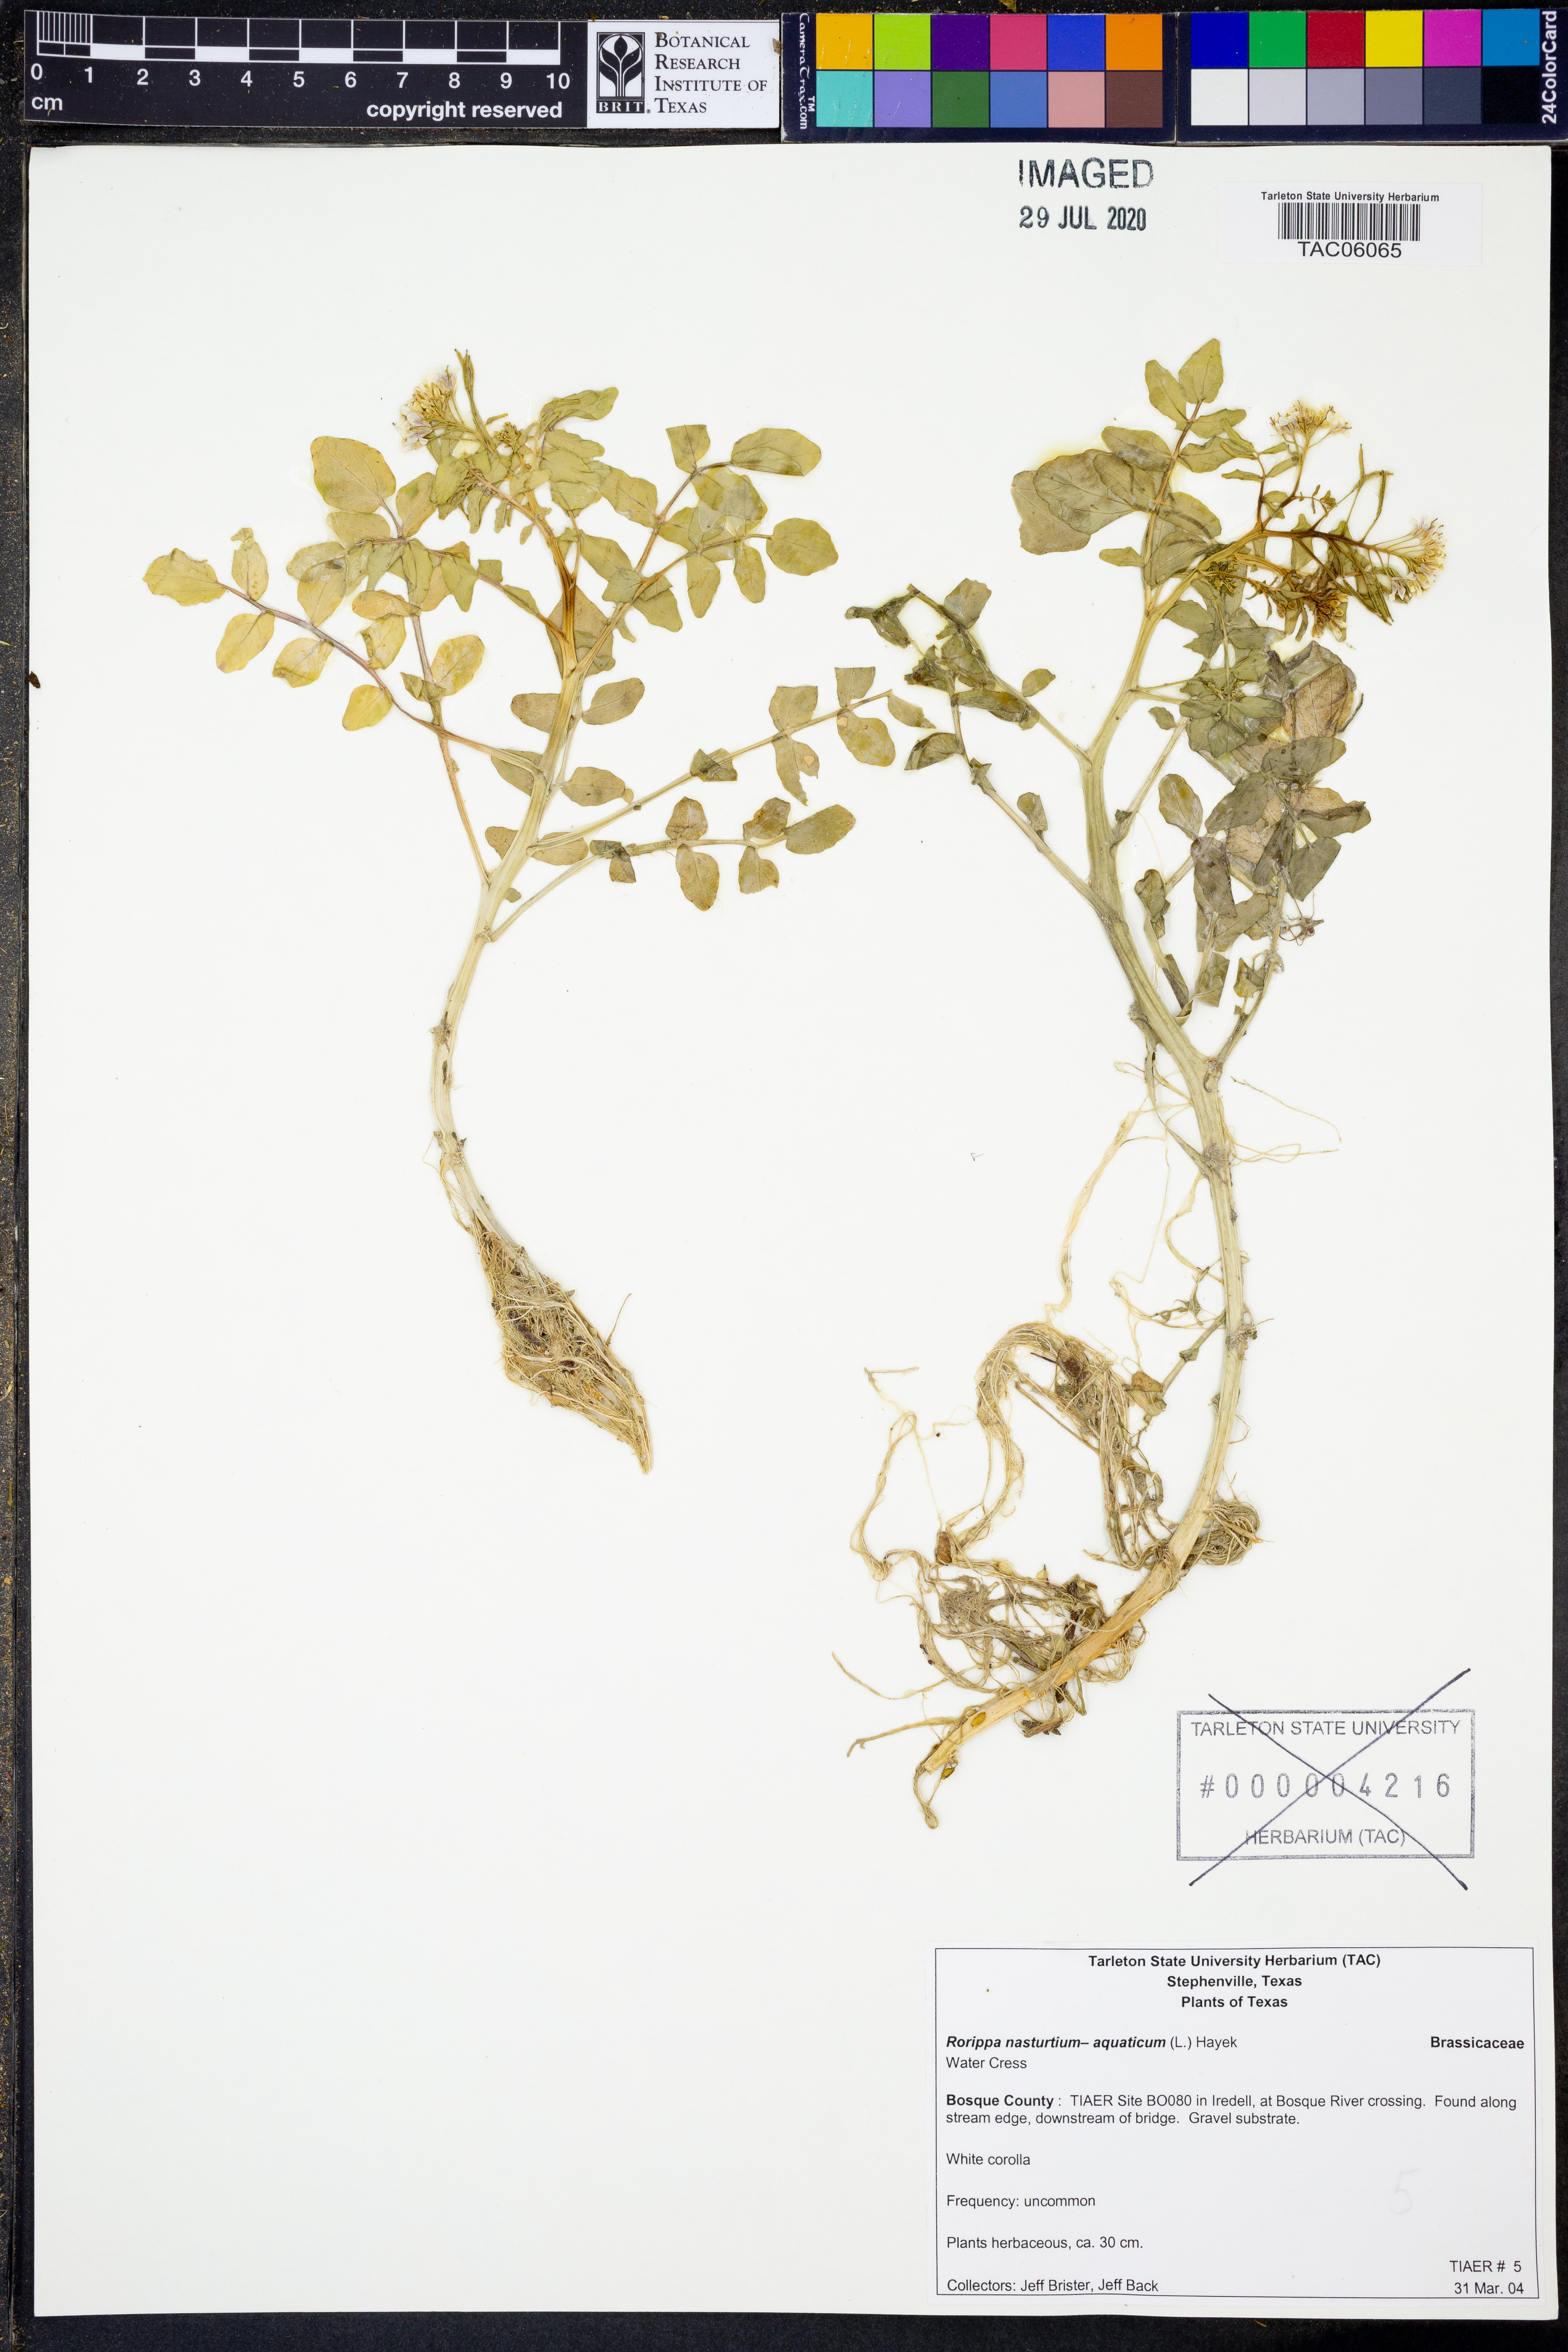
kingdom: Plantae
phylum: Tracheophyta
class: Magnoliopsida
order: Brassicales
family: Brassicaceae
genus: Nasturtium
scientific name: Nasturtium officinale
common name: Watercress
